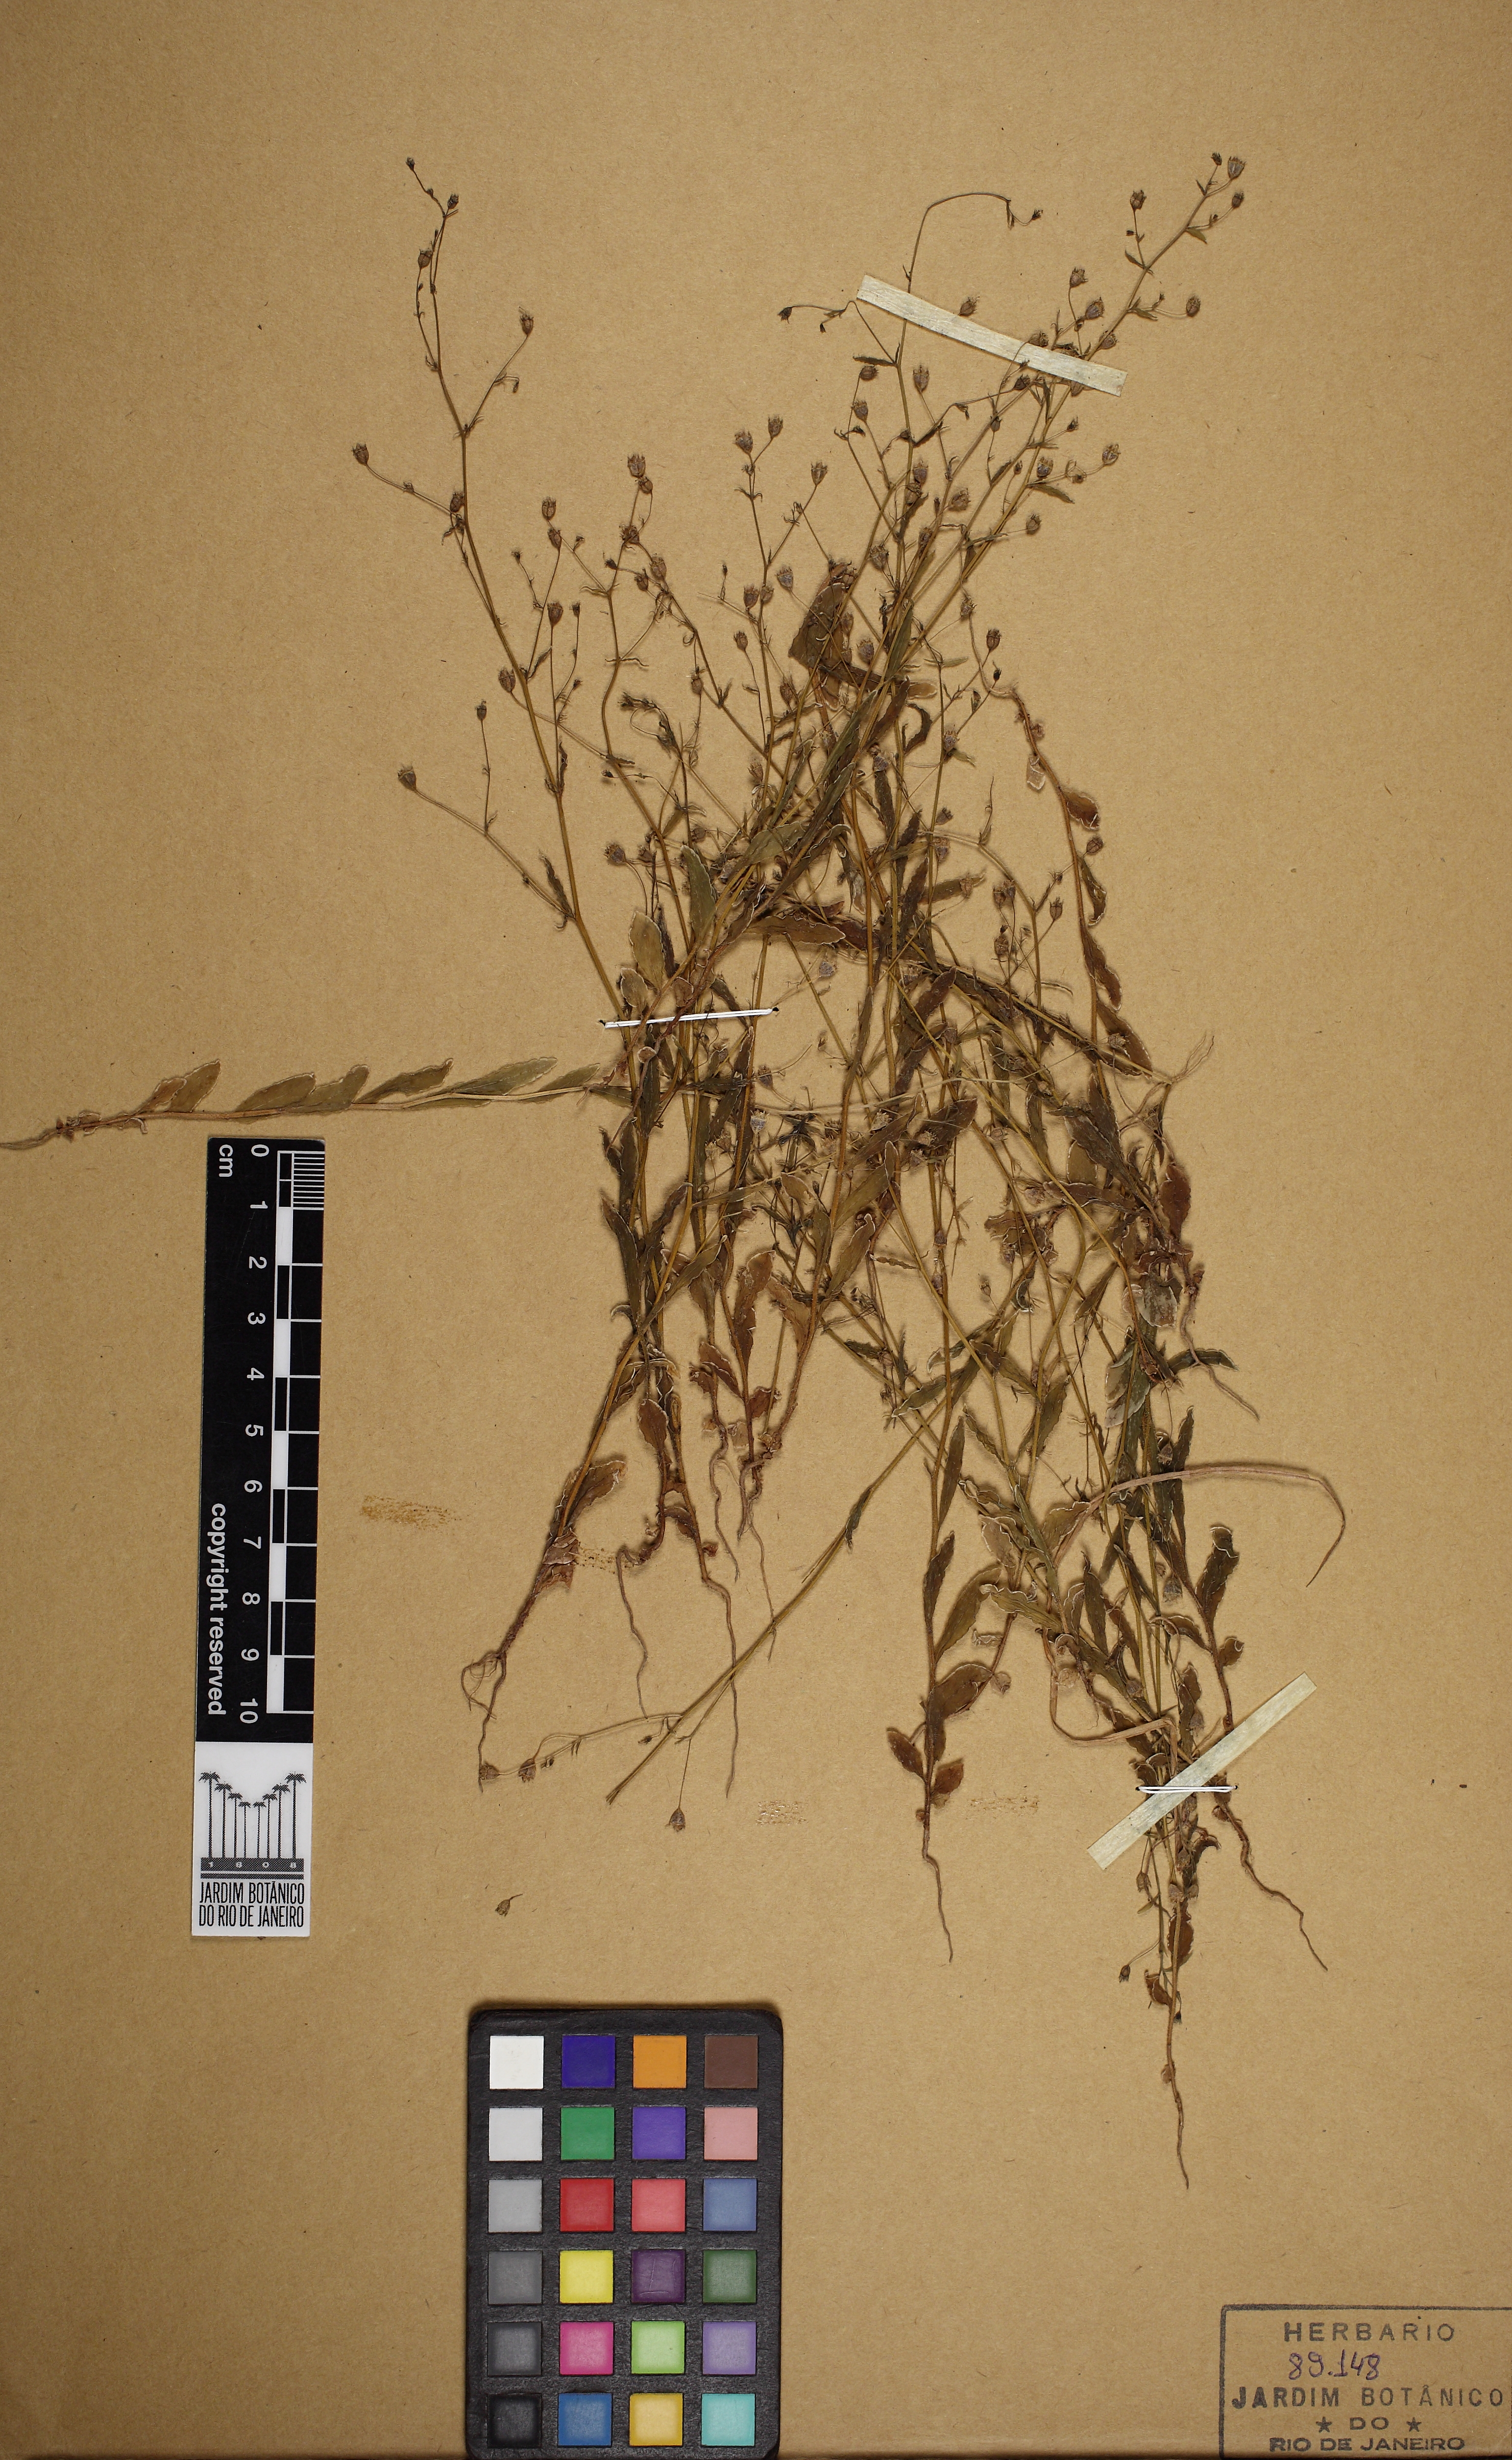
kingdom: Plantae
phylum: Tracheophyta
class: Magnoliopsida
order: Asterales
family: Campanulaceae
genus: Wahlenbergia
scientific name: Wahlenbergia perrottetii
